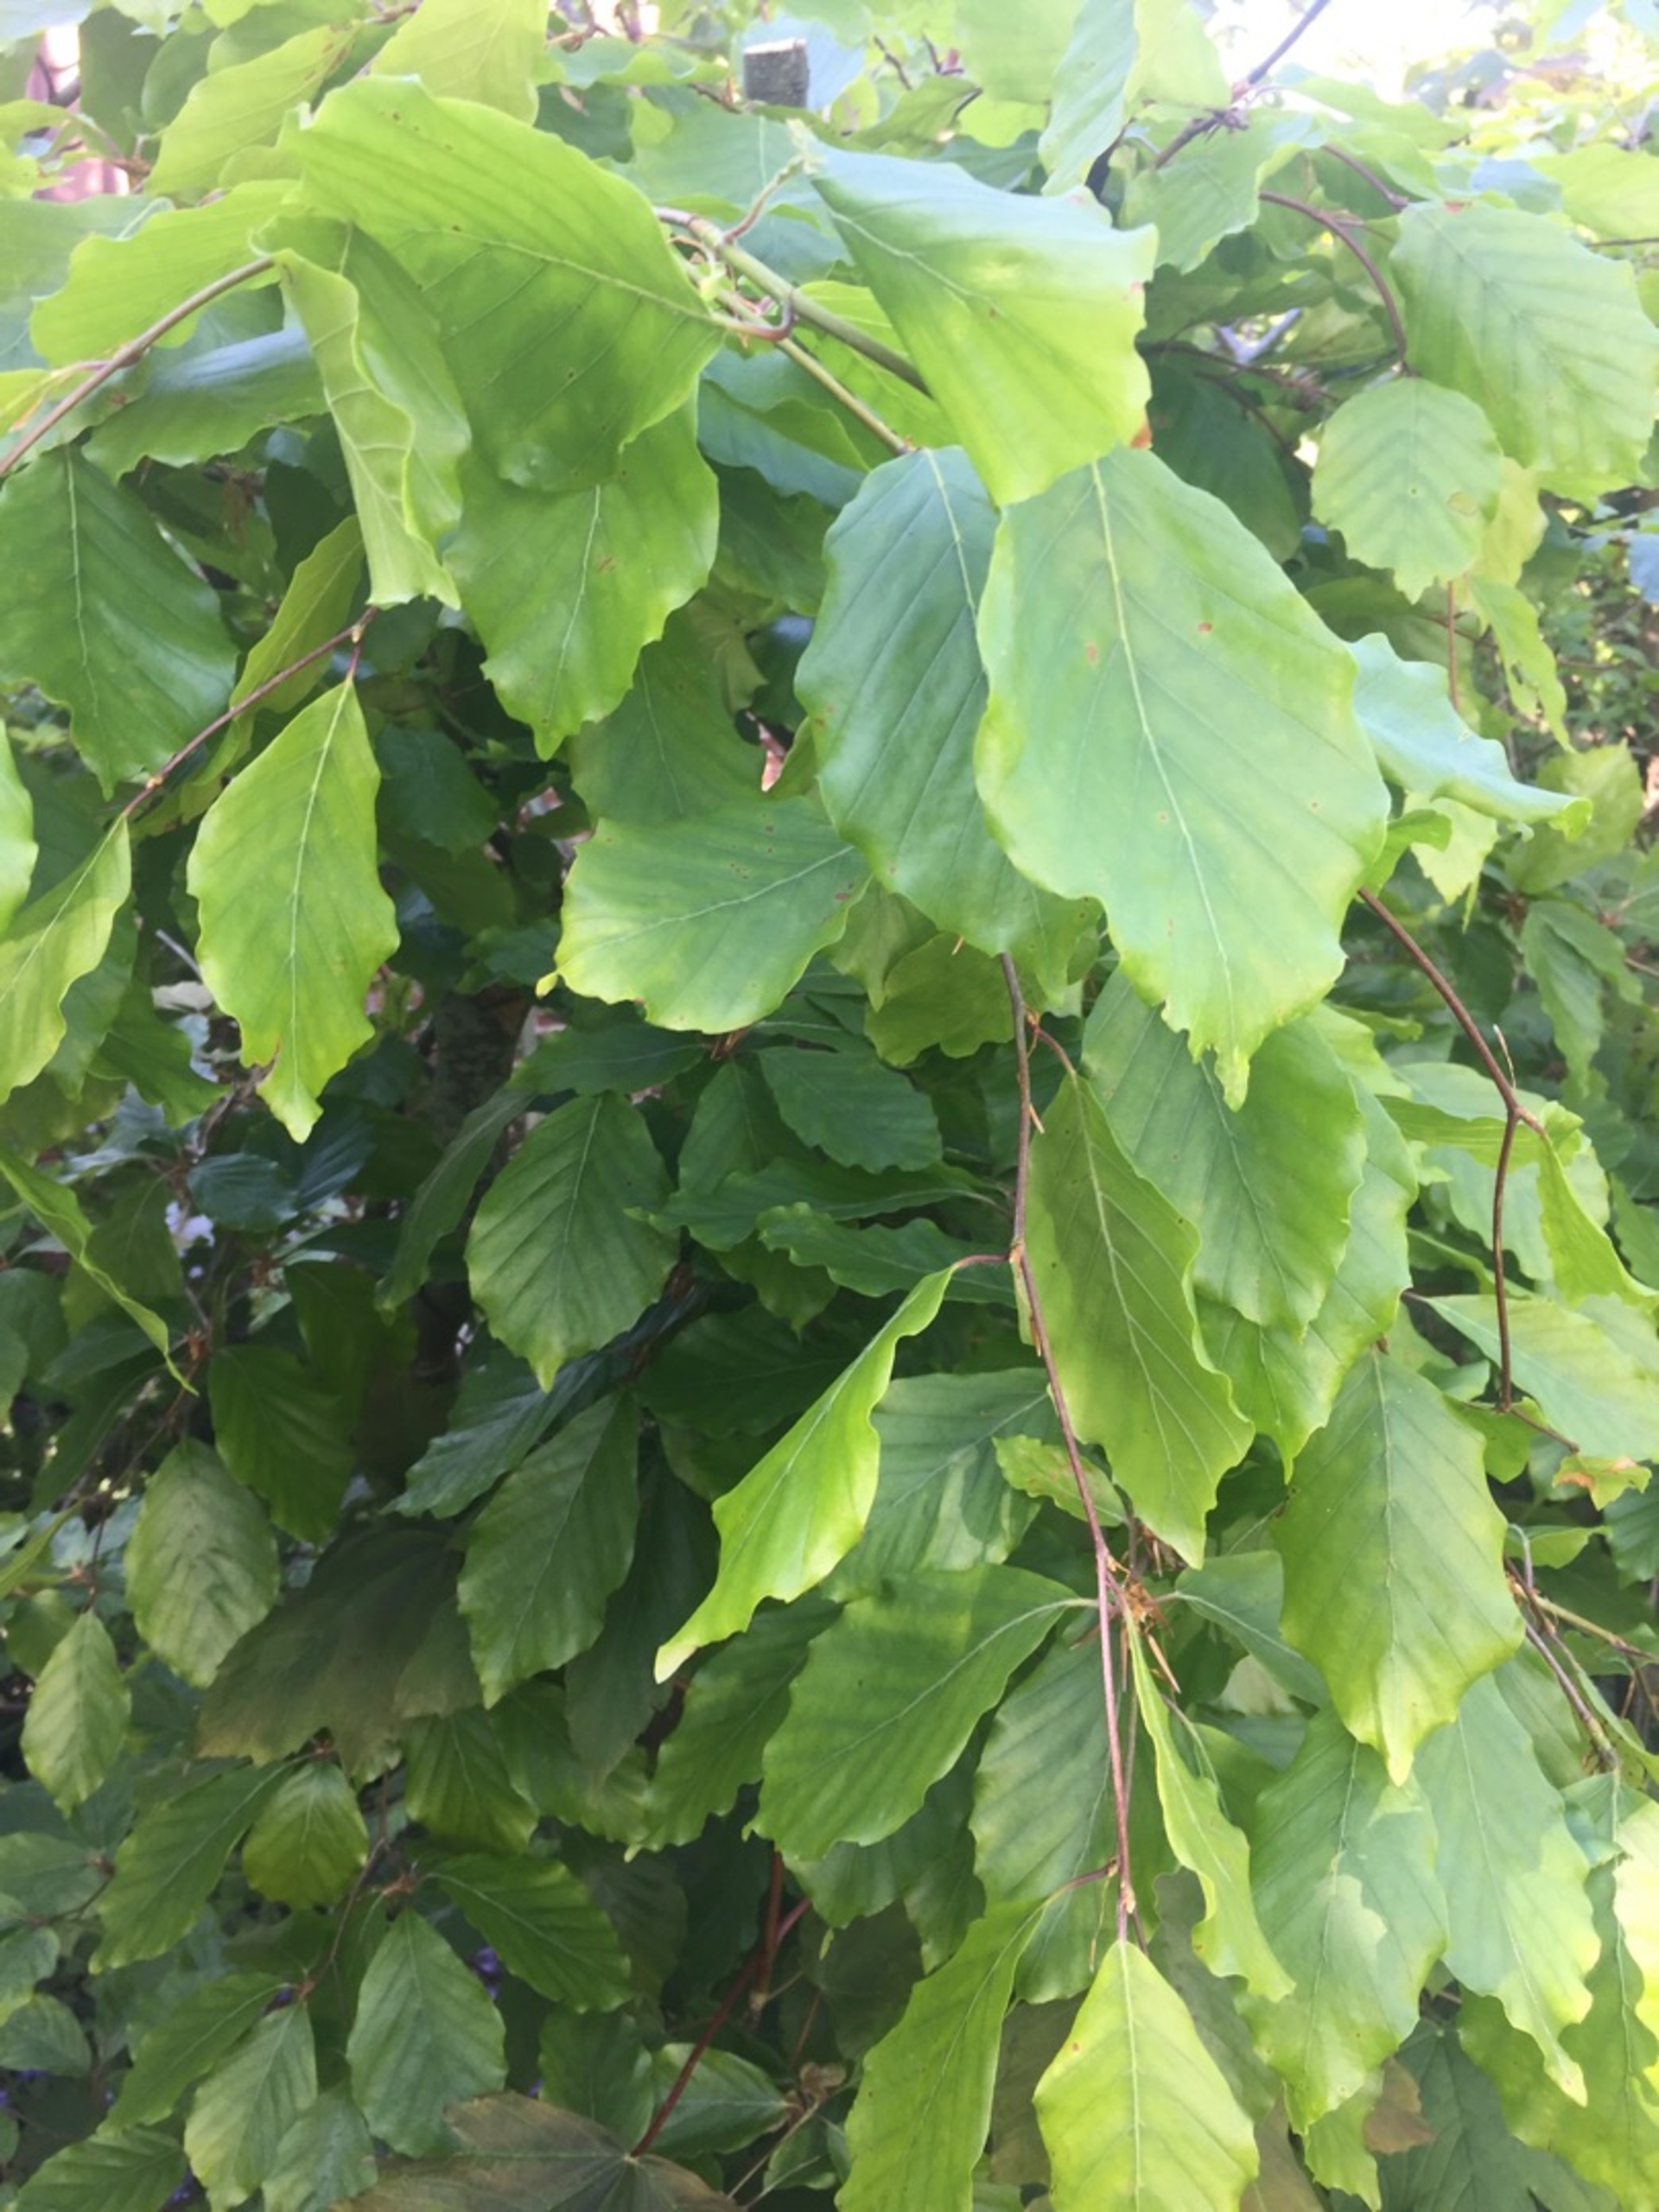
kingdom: Plantae
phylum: Tracheophyta
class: Magnoliopsida
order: Fagales
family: Fagaceae
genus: Fagus
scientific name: Fagus sylvatica
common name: Bøg
